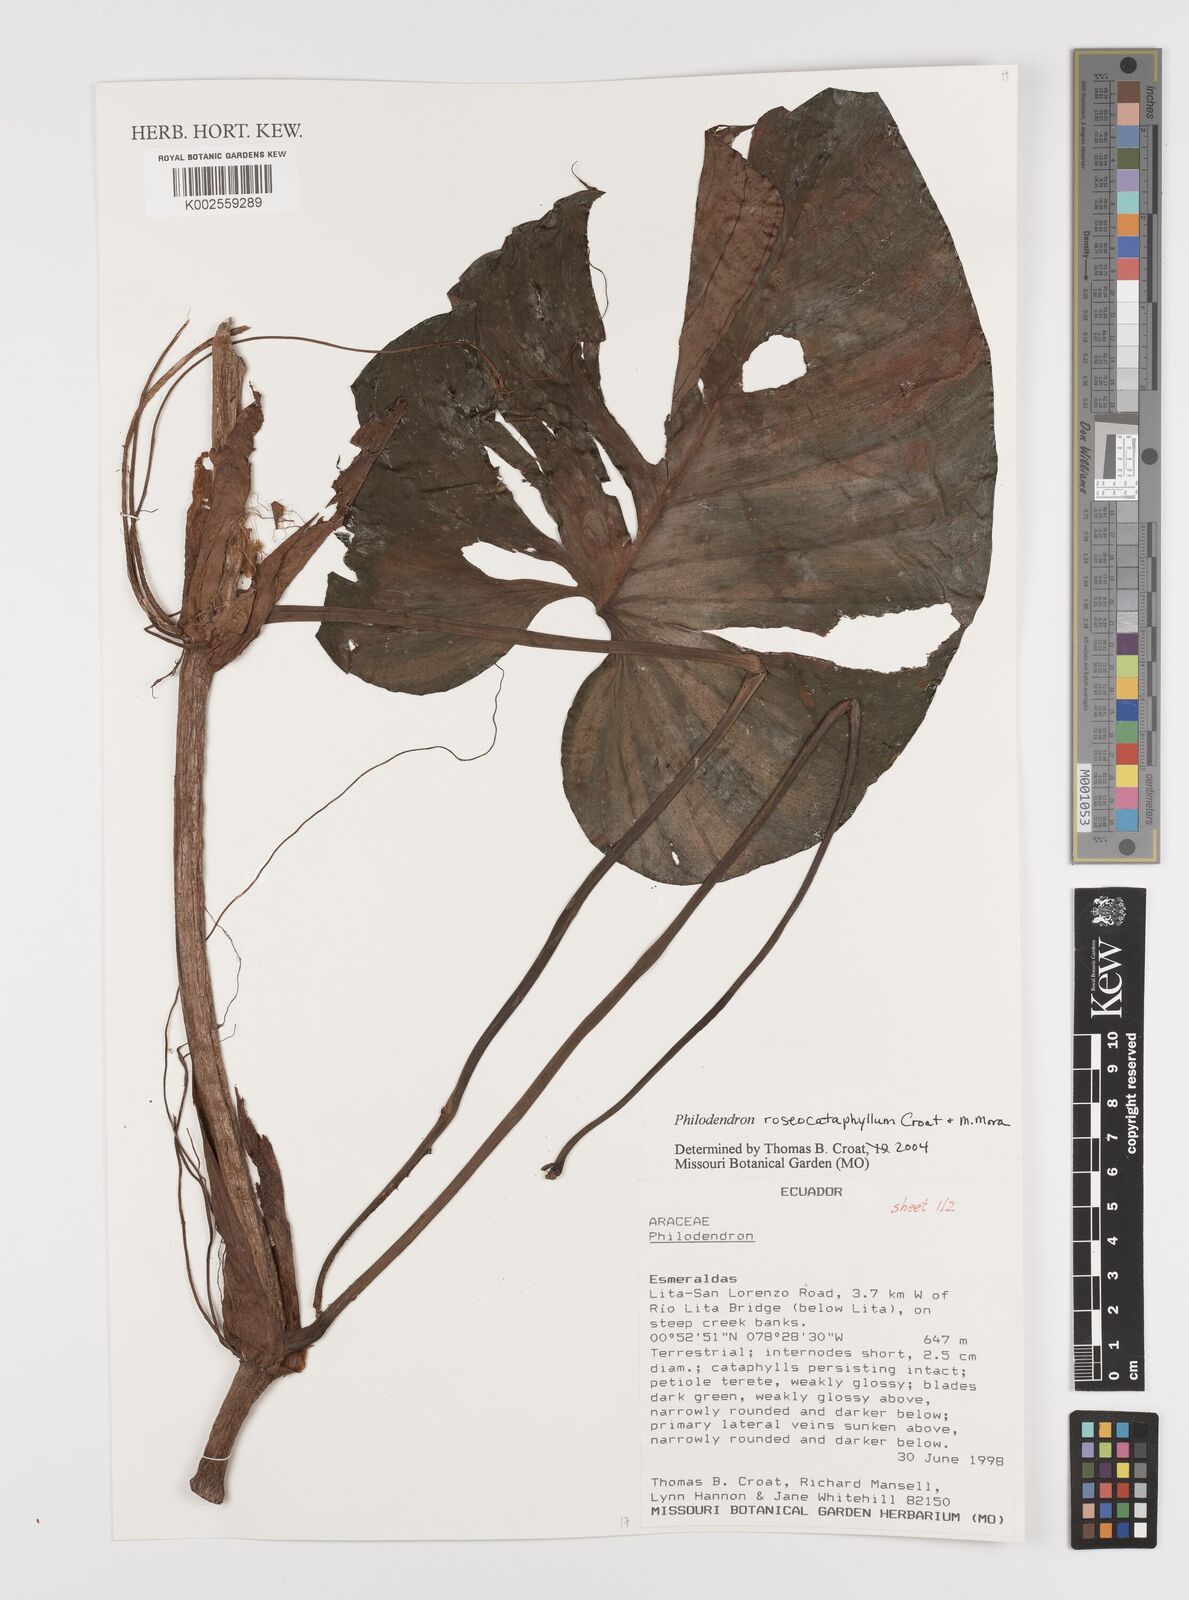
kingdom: Plantae
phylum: Tracheophyta
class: Liliopsida
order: Alismatales
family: Araceae
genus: Philodendron
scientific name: Philodendron roseocataphyllum
